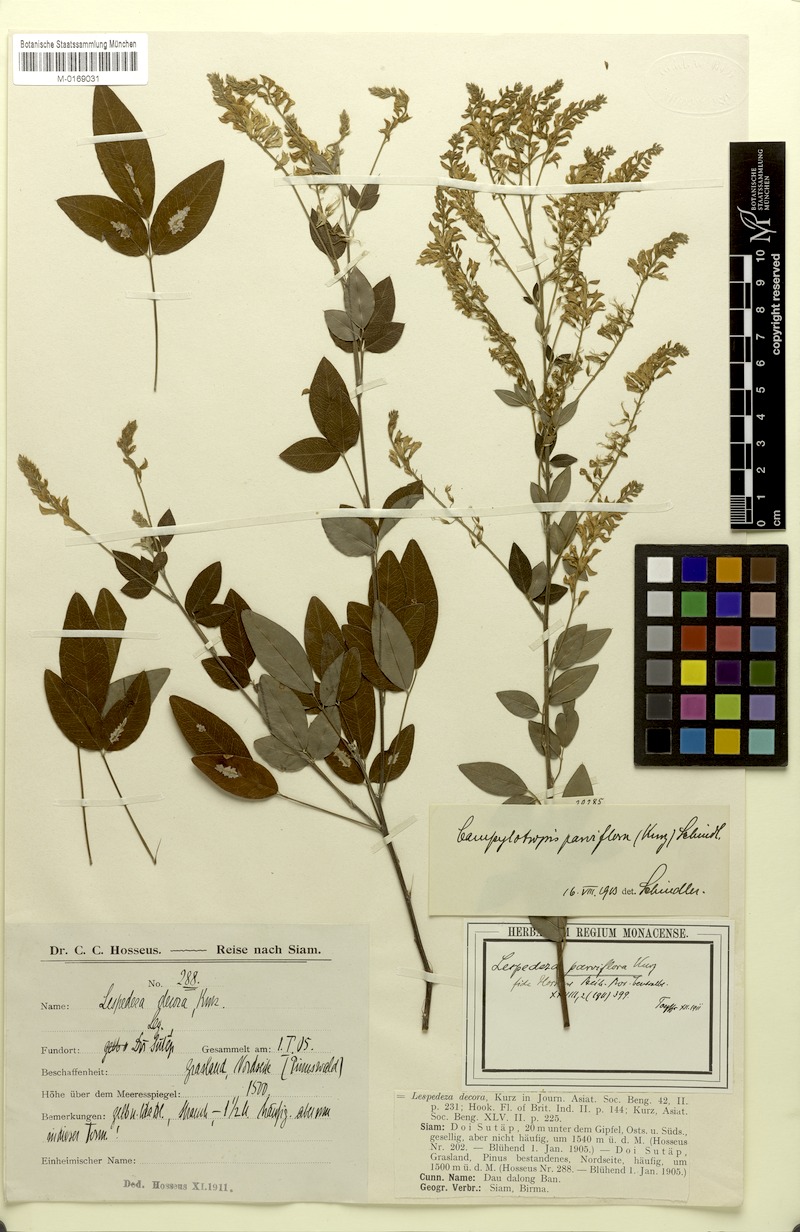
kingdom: Plantae
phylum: Tracheophyta
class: Magnoliopsida
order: Fabales
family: Fabaceae
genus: Campylotropis
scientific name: Campylotropis parviflora
